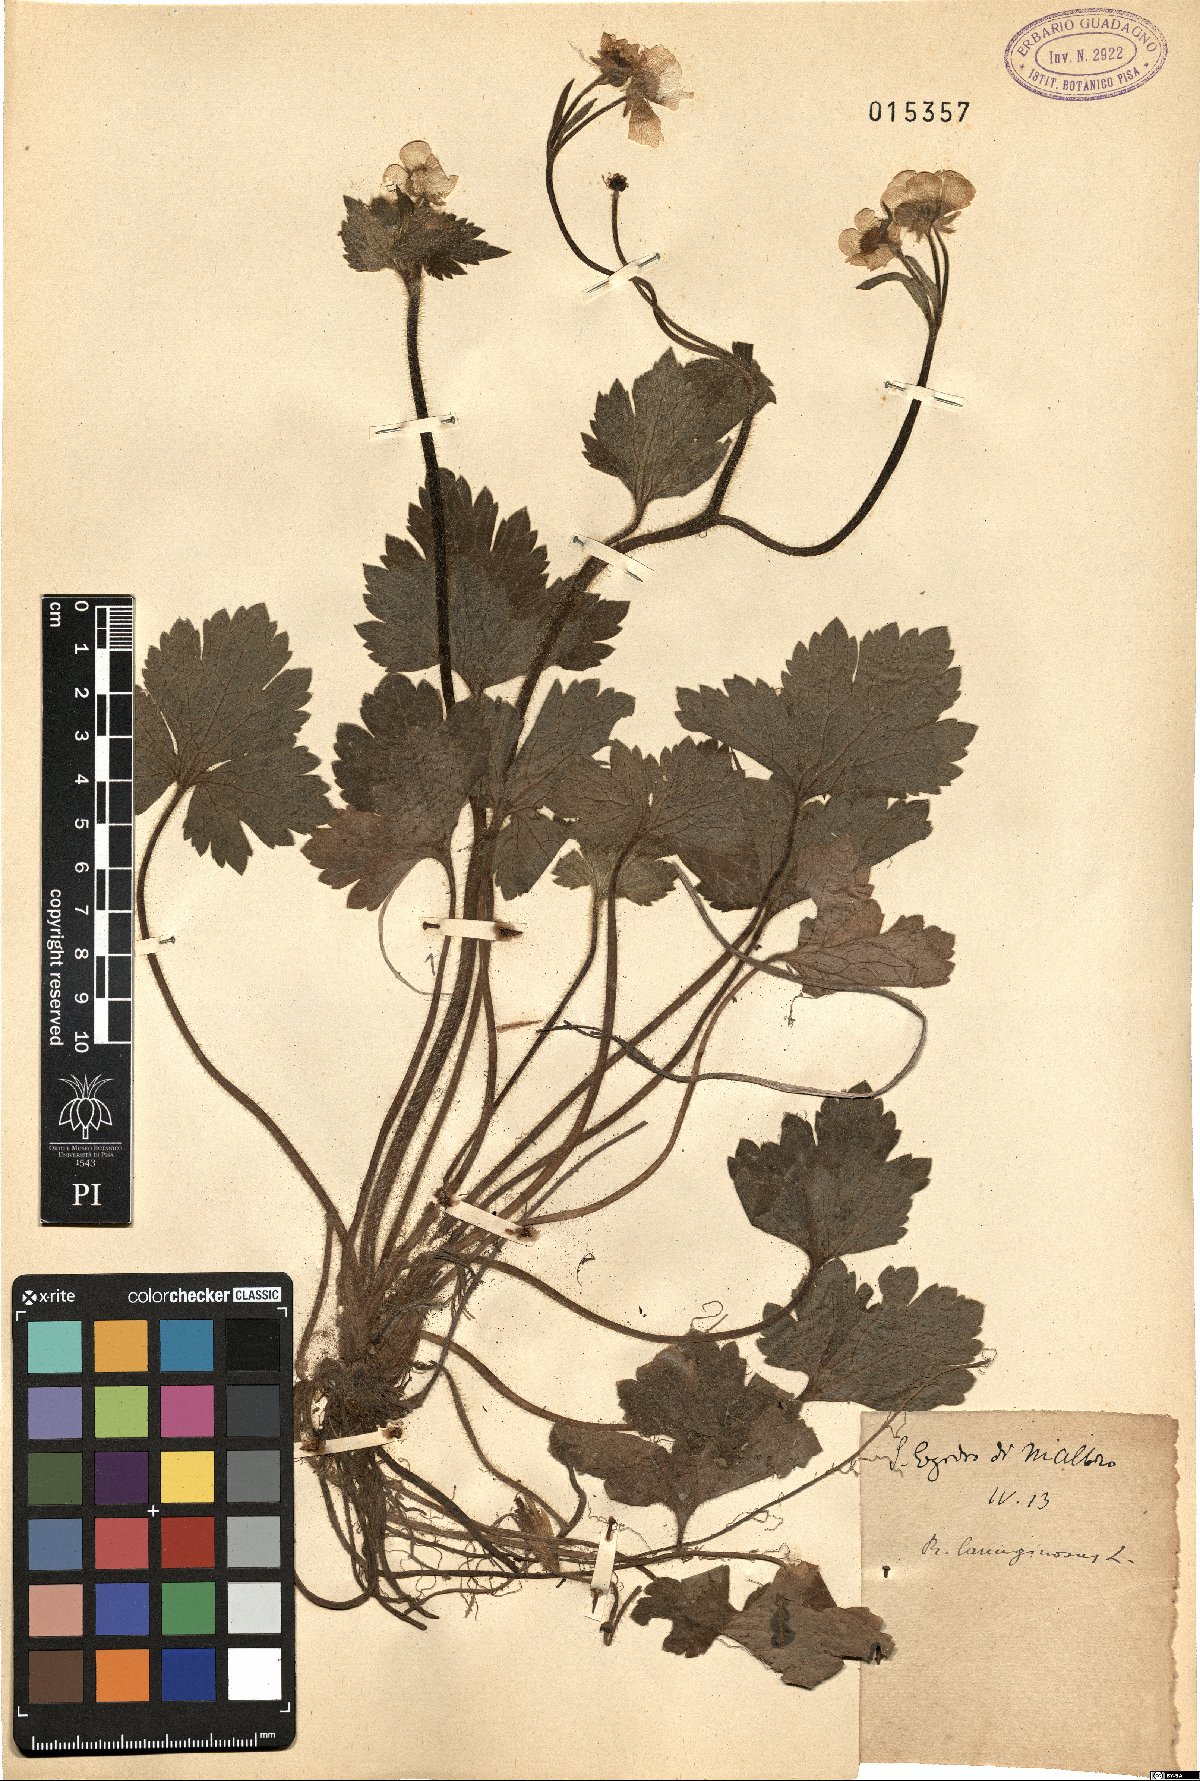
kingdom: Plantae
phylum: Tracheophyta
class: Magnoliopsida
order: Ranunculales
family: Ranunculaceae
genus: Ranunculus
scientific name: Ranunculus lanuginosus
